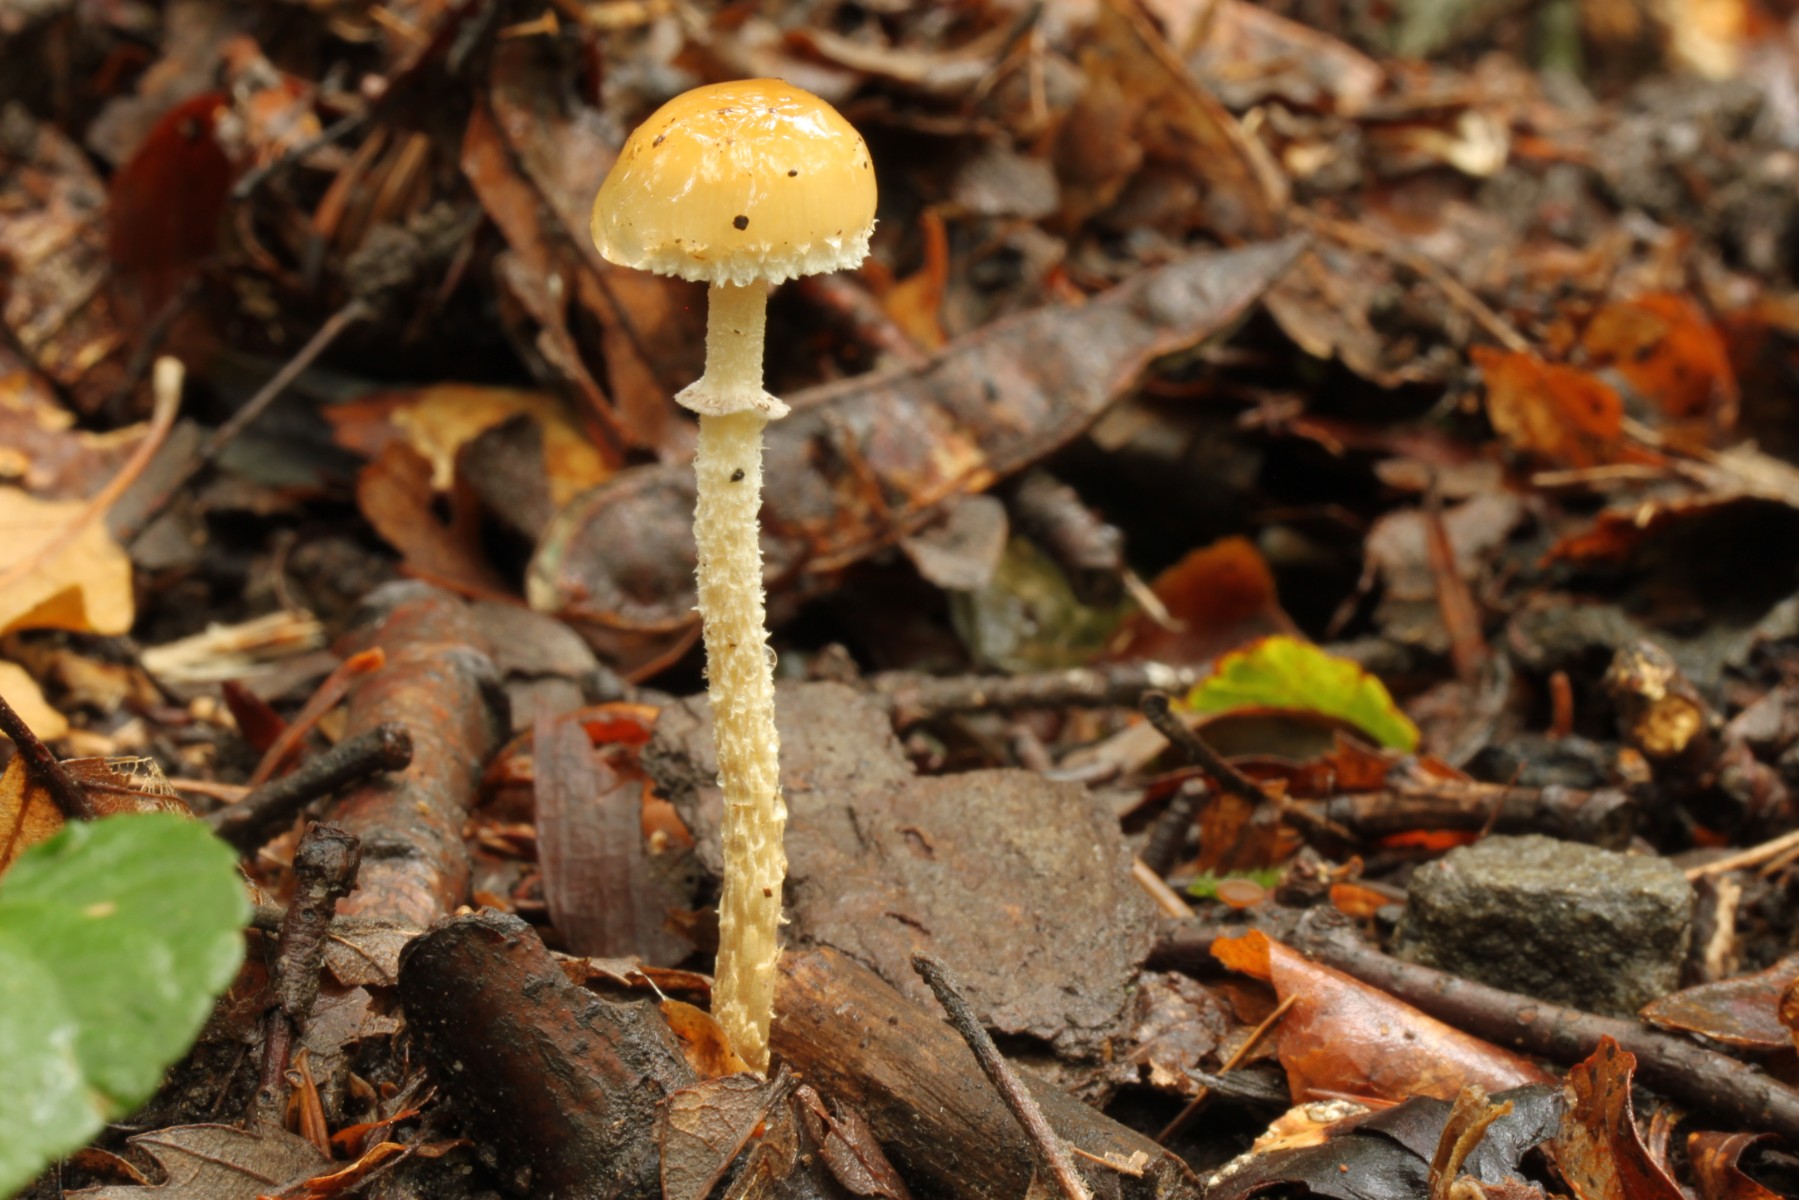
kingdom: Fungi
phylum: Basidiomycota
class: Agaricomycetes
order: Agaricales
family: Strophariaceae
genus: Leratiomyces
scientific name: Leratiomyces squamosus
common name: skællet bredblad
